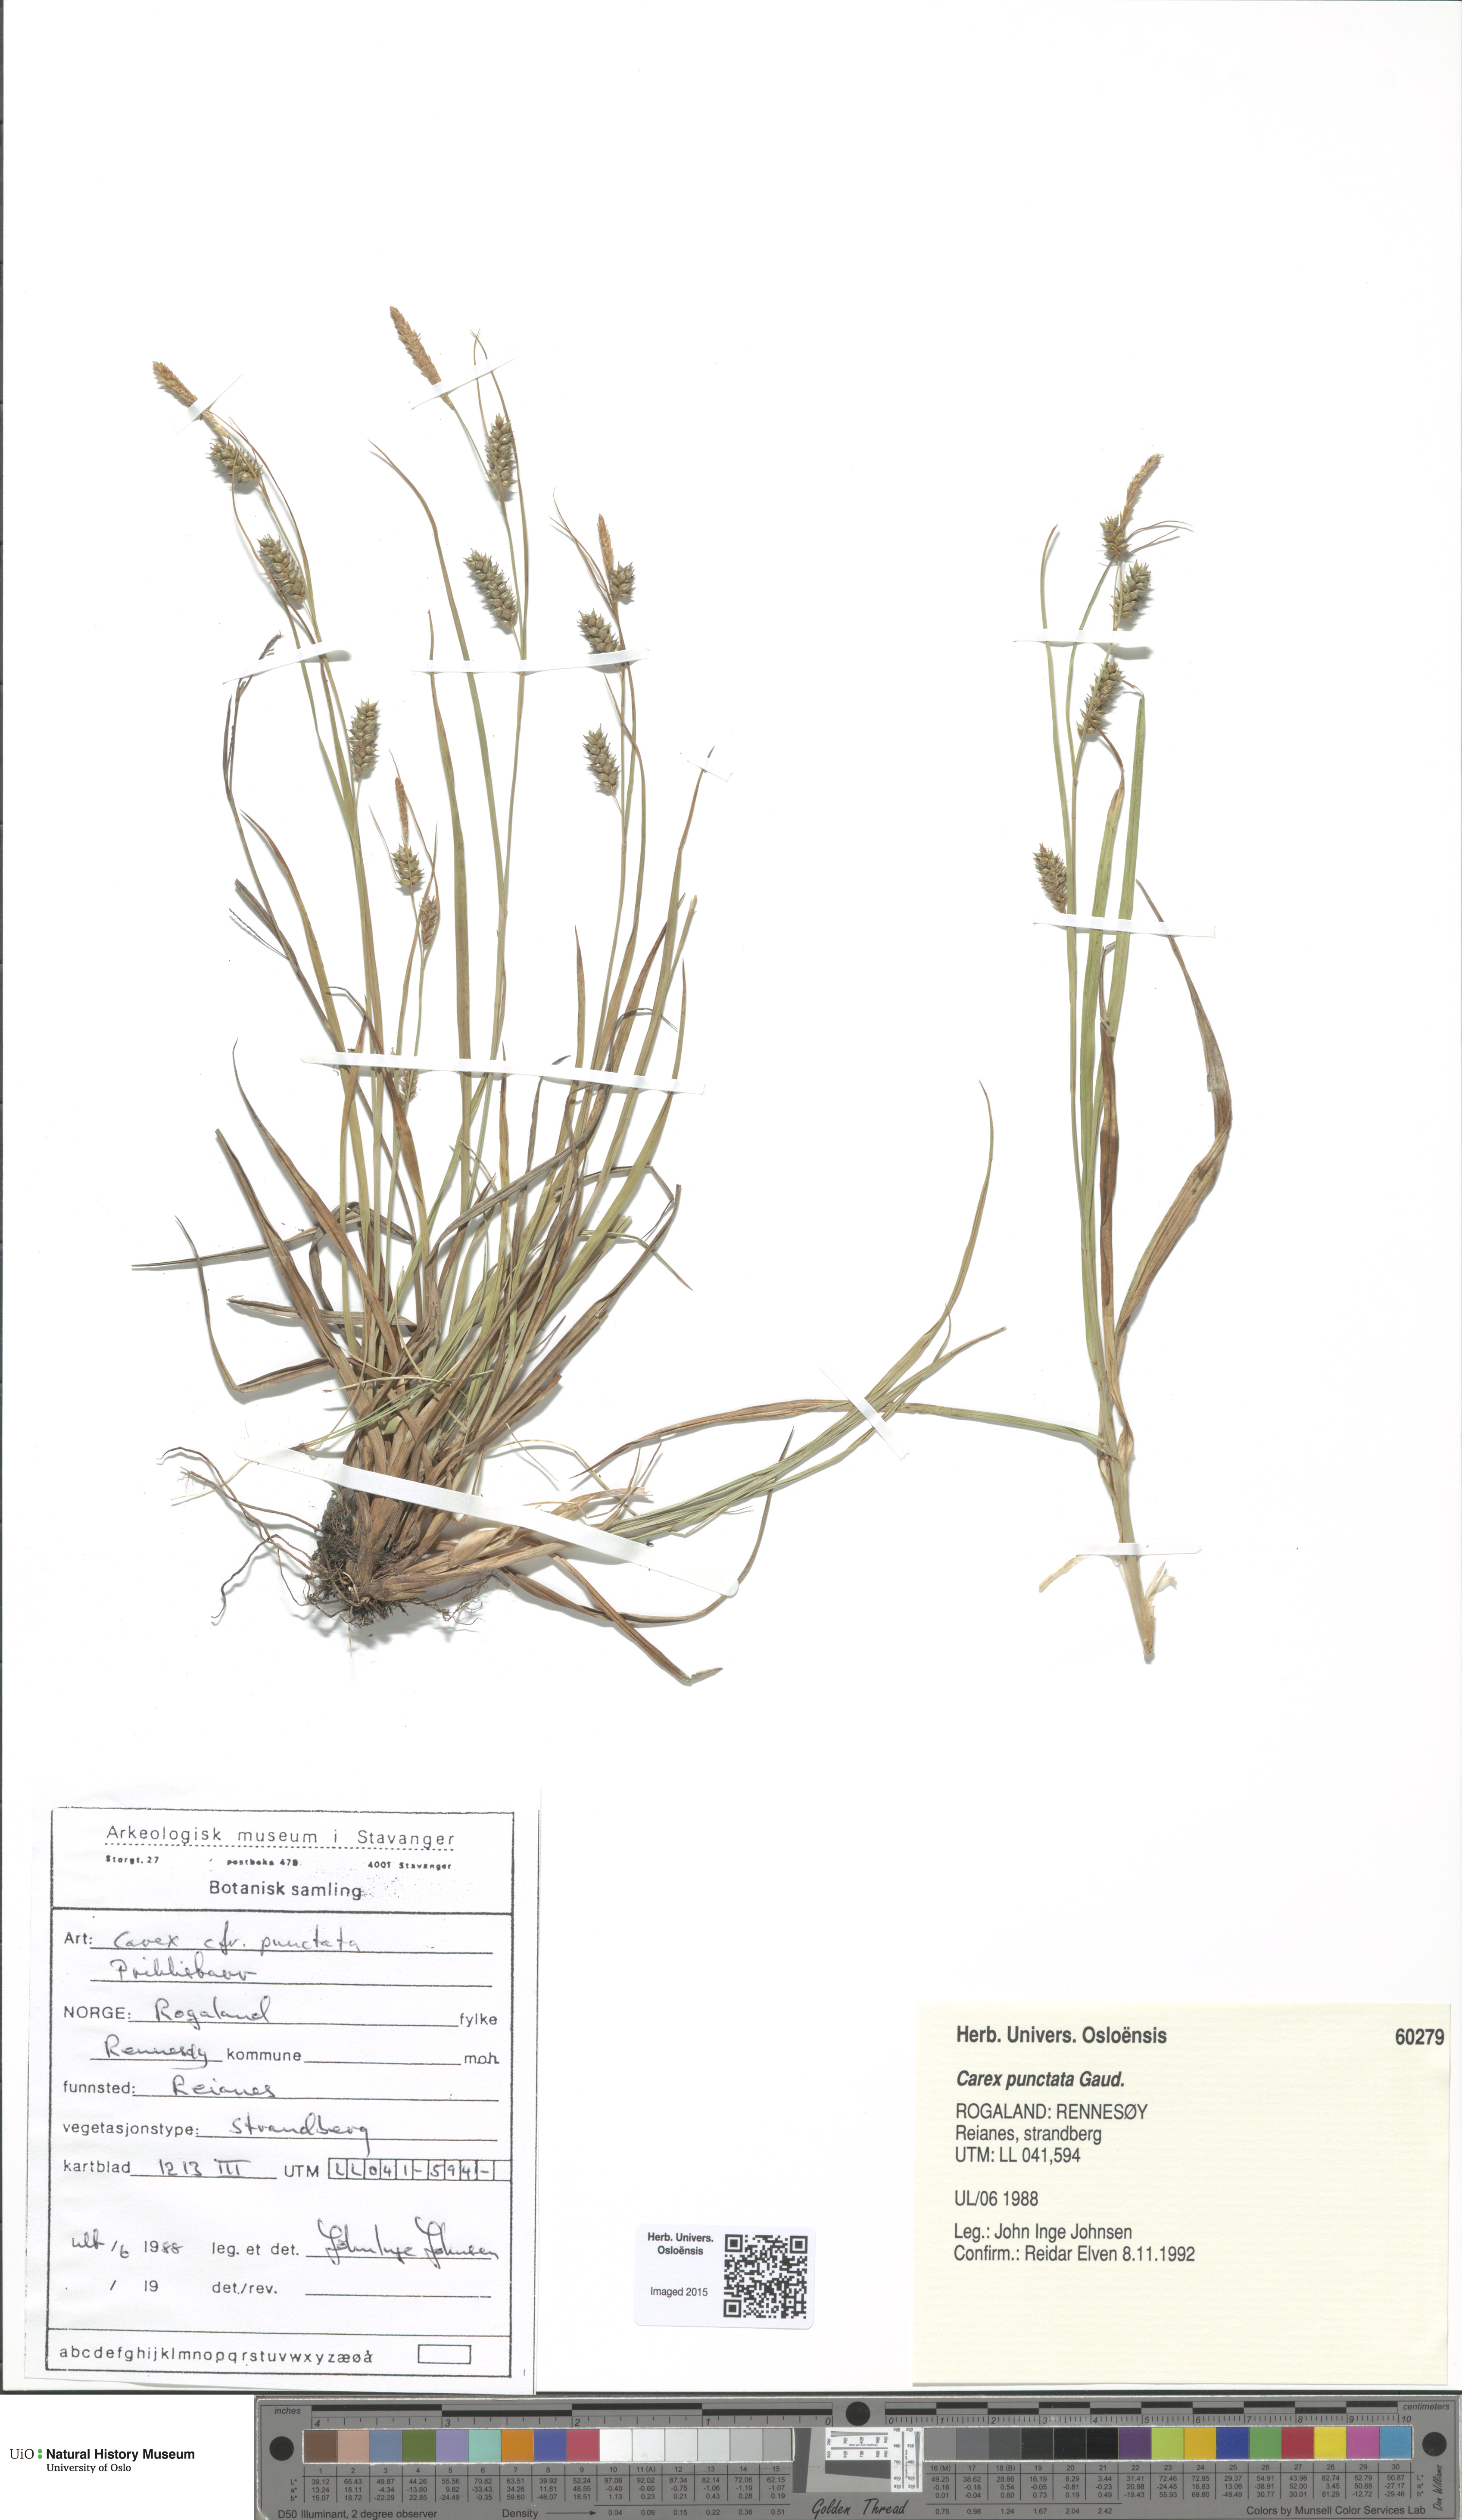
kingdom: Plantae
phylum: Tracheophyta
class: Liliopsida
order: Poales
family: Cyperaceae
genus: Carex
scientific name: Carex punctata
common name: Dotted sedge
